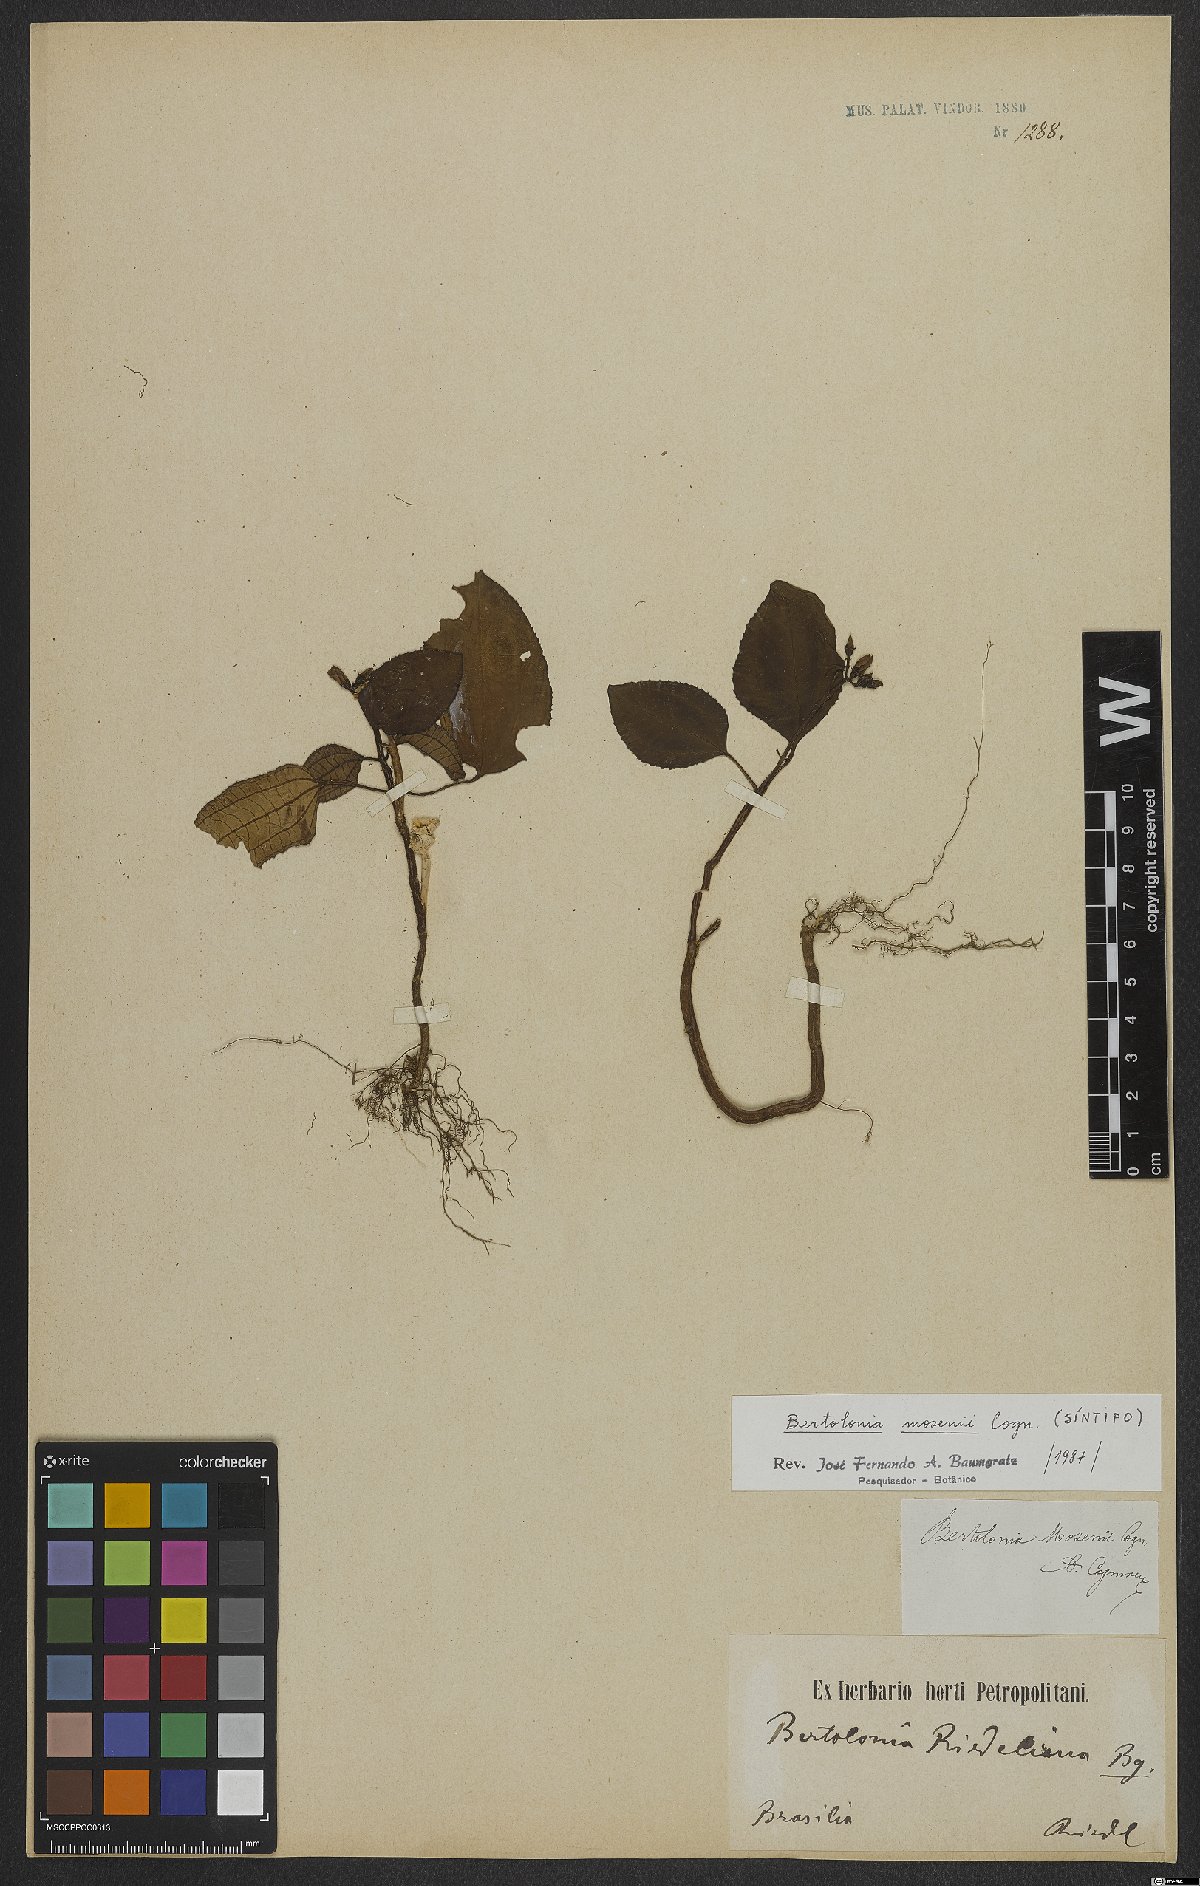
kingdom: Plantae
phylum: Tracheophyta
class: Magnoliopsida
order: Myrtales
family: Melastomataceae
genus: Bertolonia
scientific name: Bertolonia mosenii
